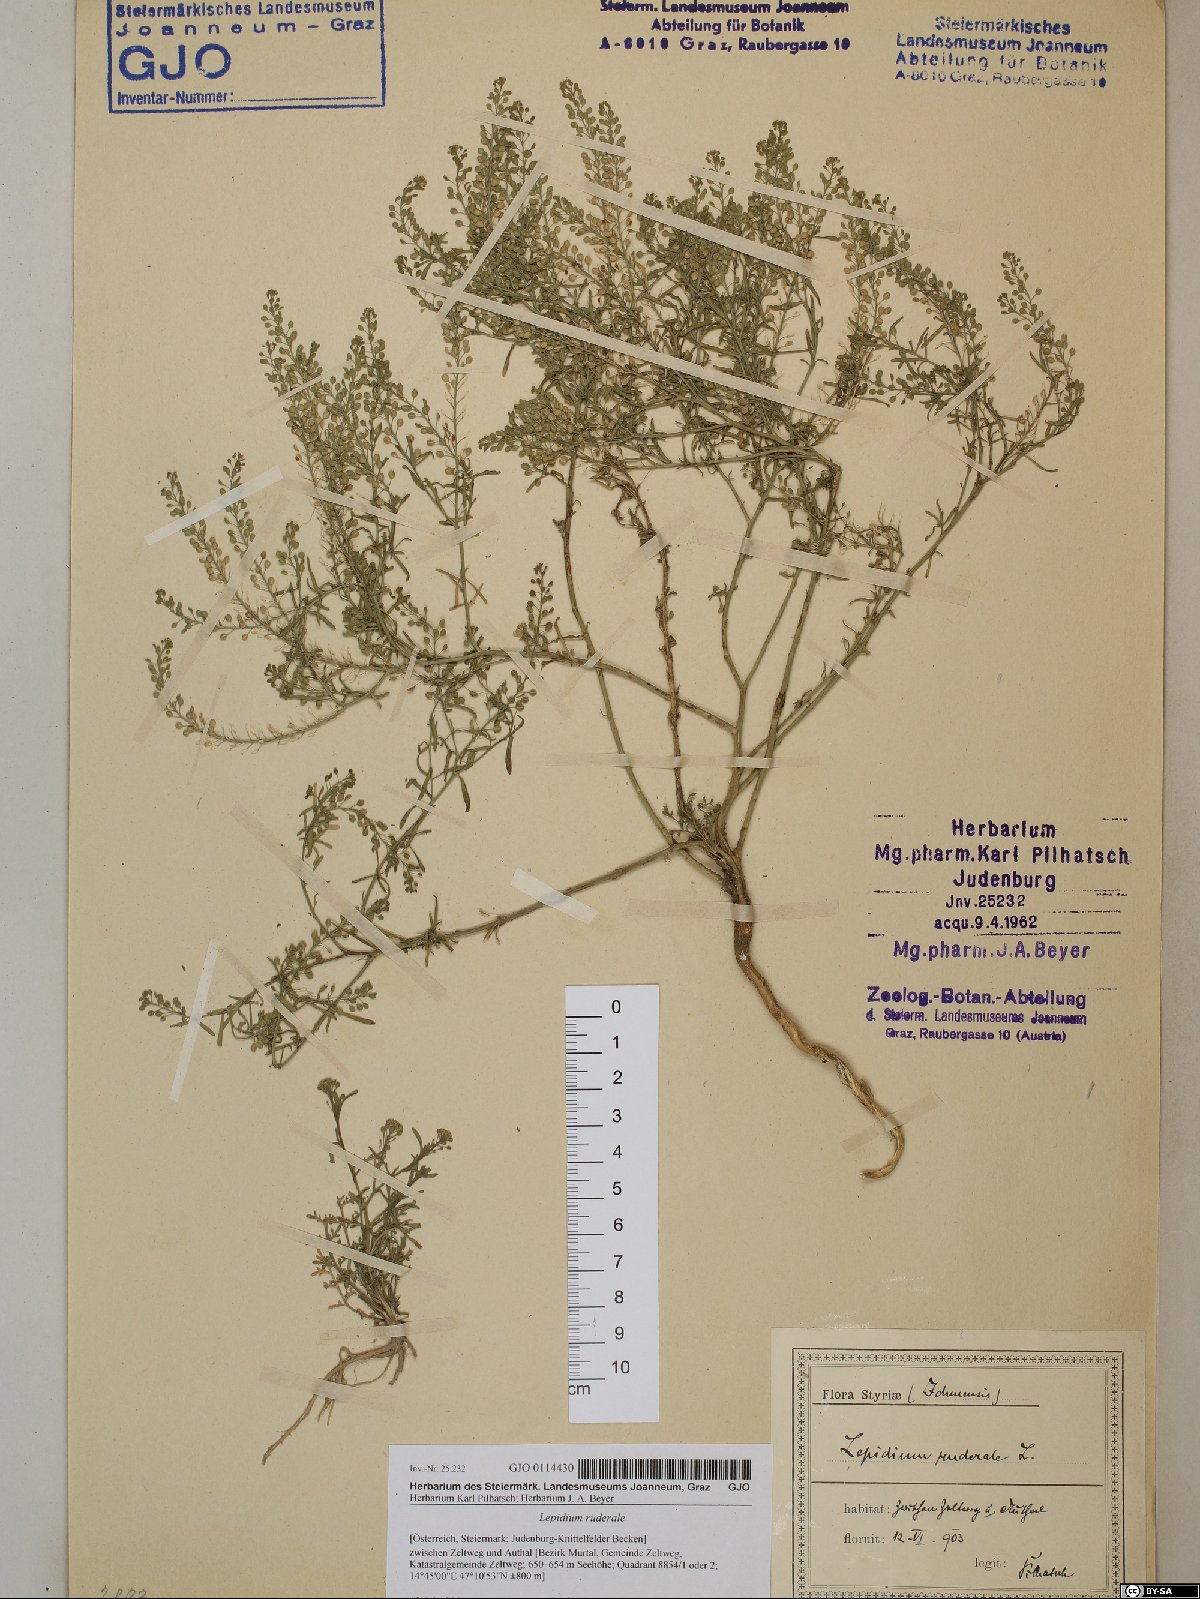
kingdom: Plantae
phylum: Tracheophyta
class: Magnoliopsida
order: Brassicales
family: Brassicaceae
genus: Lepidium
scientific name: Lepidium ruderale
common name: Narrow-leaved pepperwort
